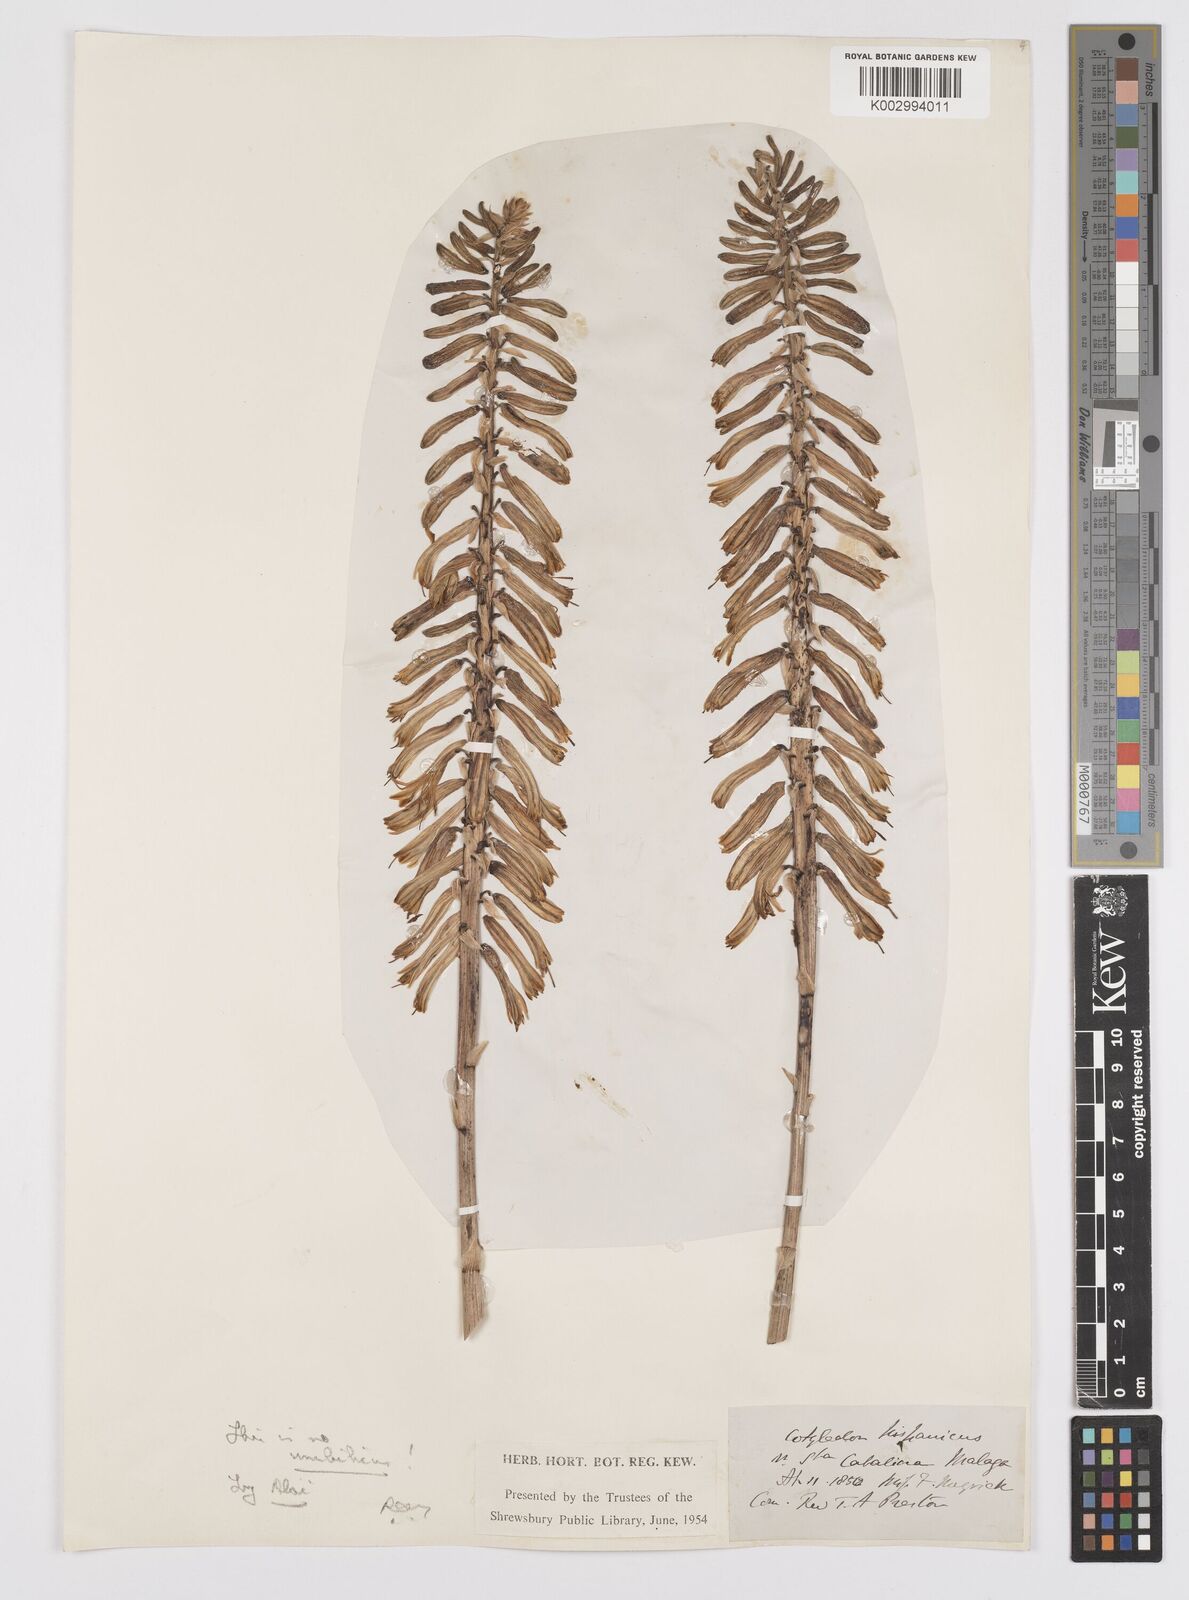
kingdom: Plantae
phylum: Tracheophyta
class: Liliopsida
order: Asparagales
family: Asphodelaceae
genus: Aloe
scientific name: Aloe vera
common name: Barbados aloe
